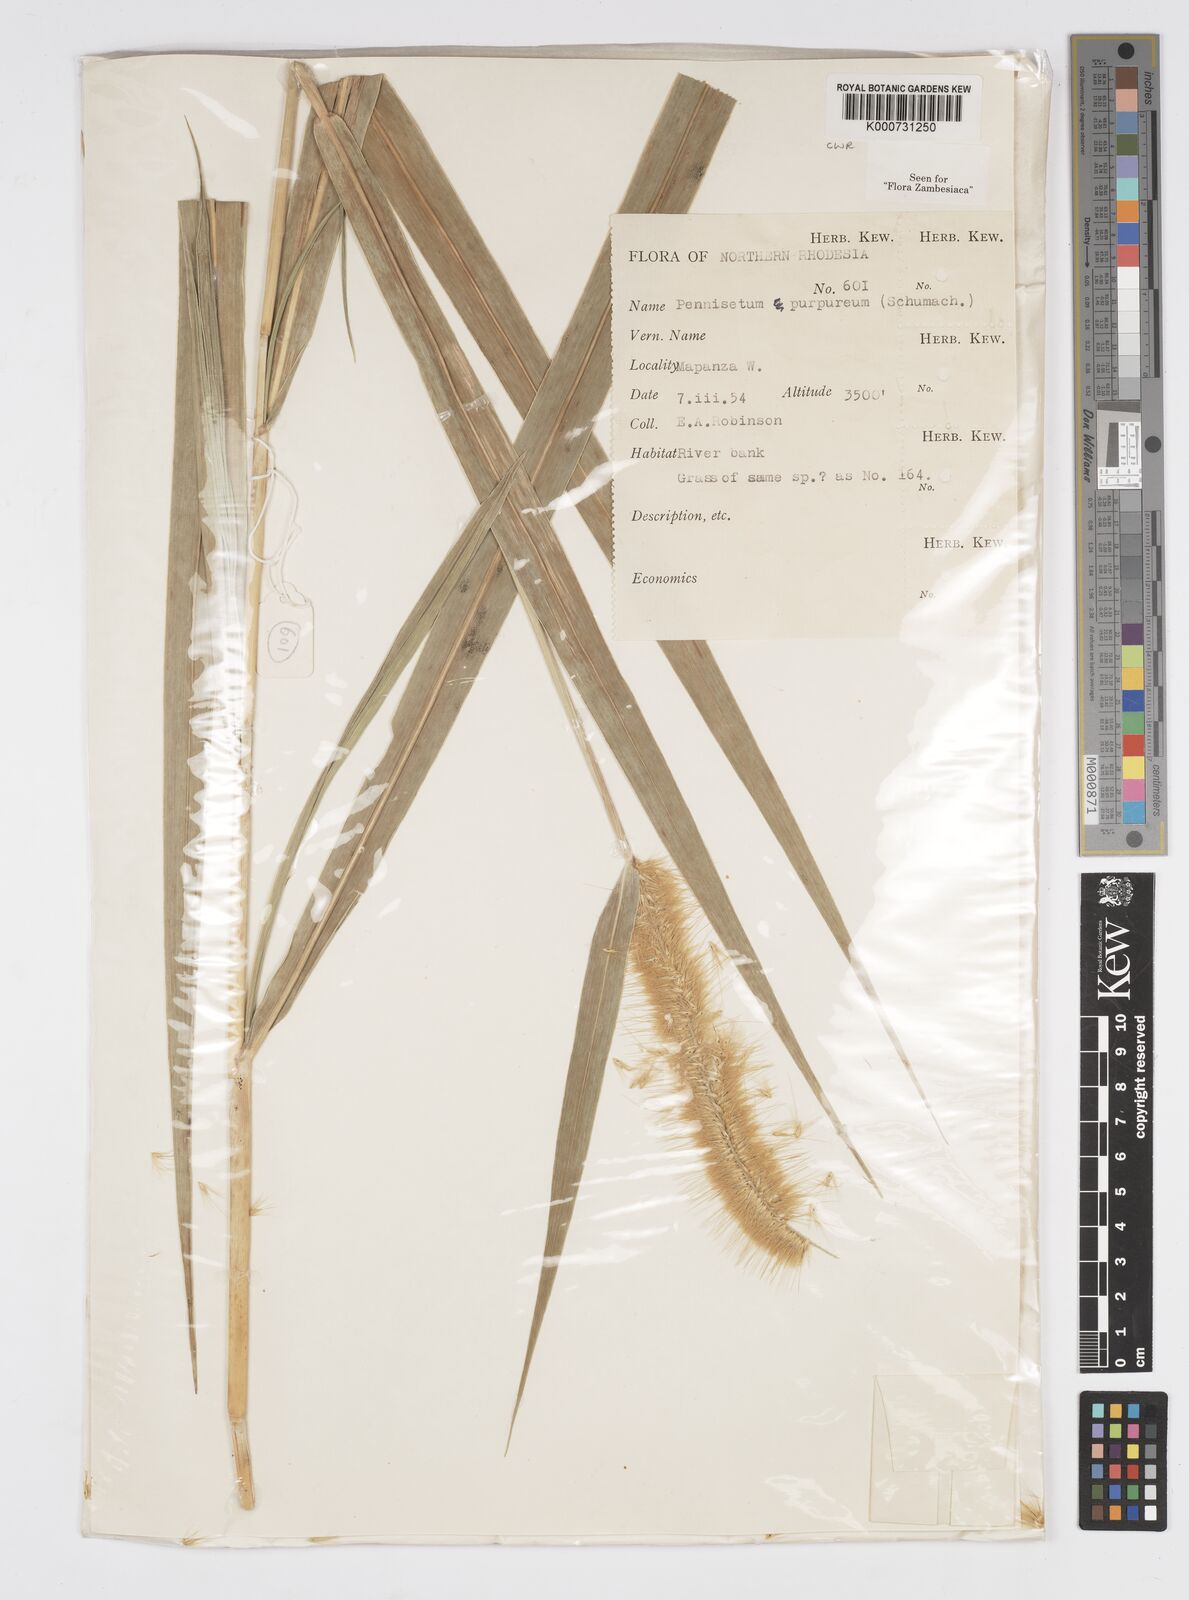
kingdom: Plantae
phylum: Tracheophyta
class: Liliopsida
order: Poales
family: Poaceae
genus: Cenchrus
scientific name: Cenchrus purpureus
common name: Elephant grass
